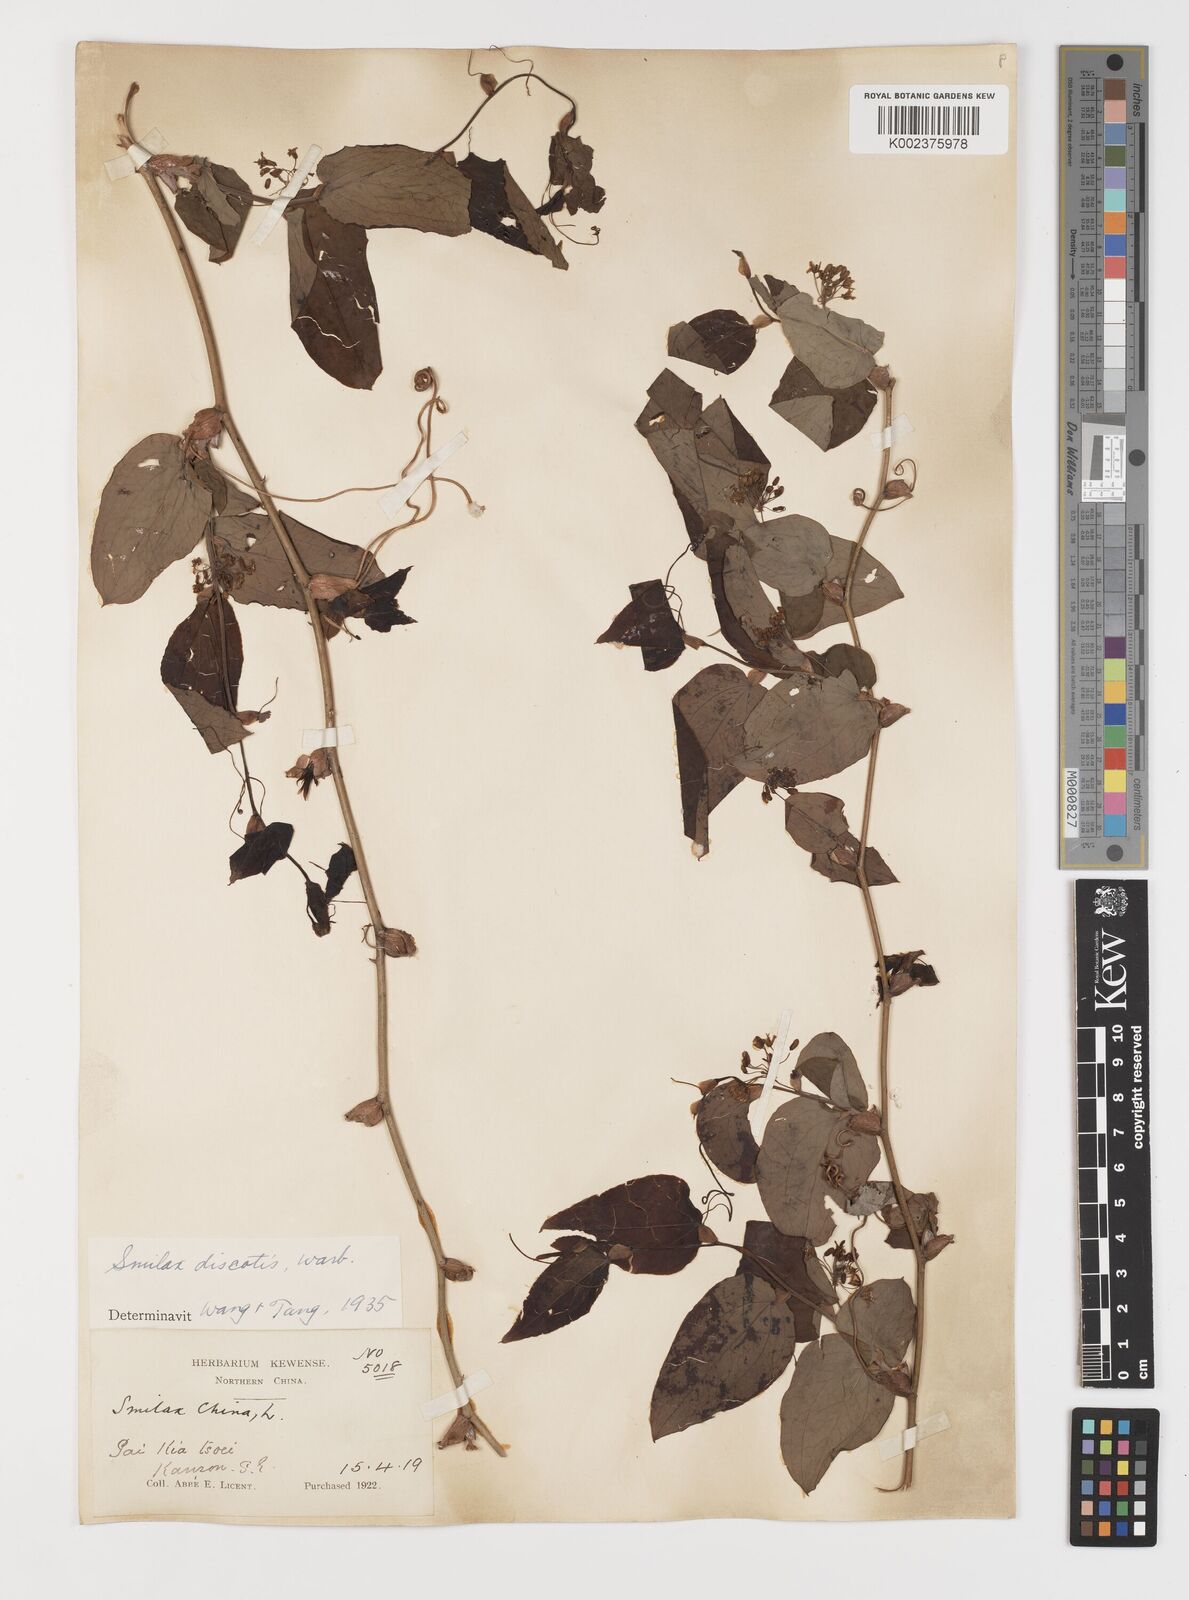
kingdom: Plantae
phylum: Tracheophyta
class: Liliopsida
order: Liliales
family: Smilacaceae
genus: Smilax
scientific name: Smilax discotis
